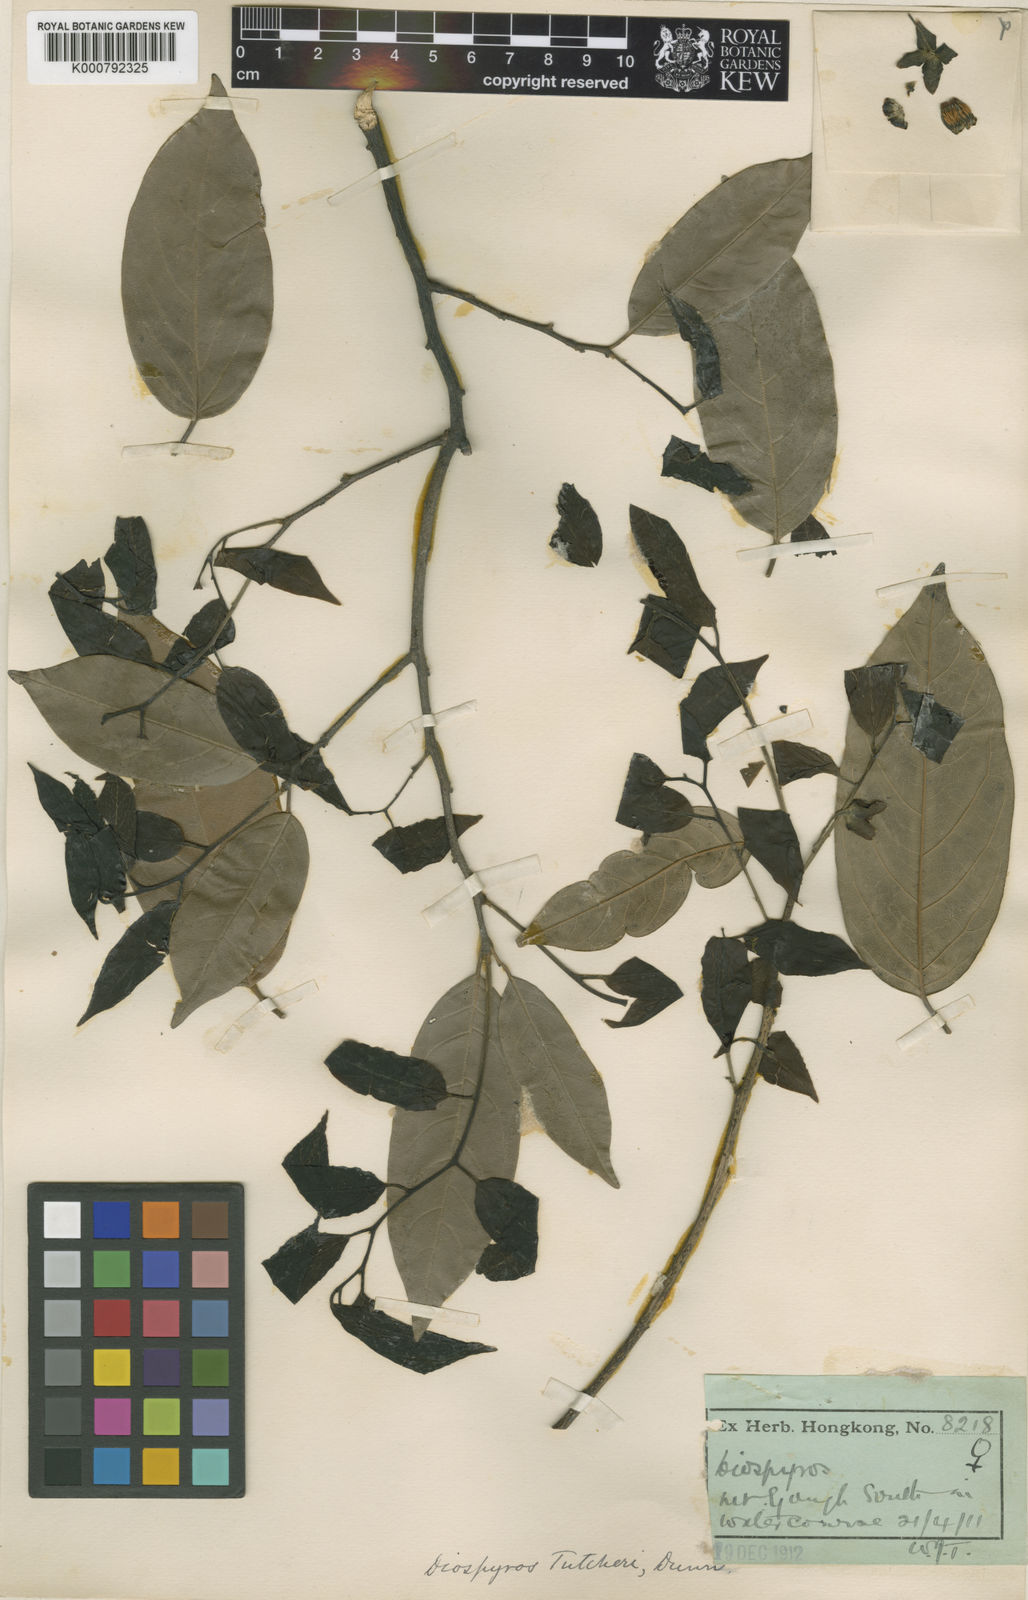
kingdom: Plantae
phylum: Tracheophyta
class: Magnoliopsida
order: Ericales
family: Ebenaceae
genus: Diospyros
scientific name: Diospyros tutcheri
